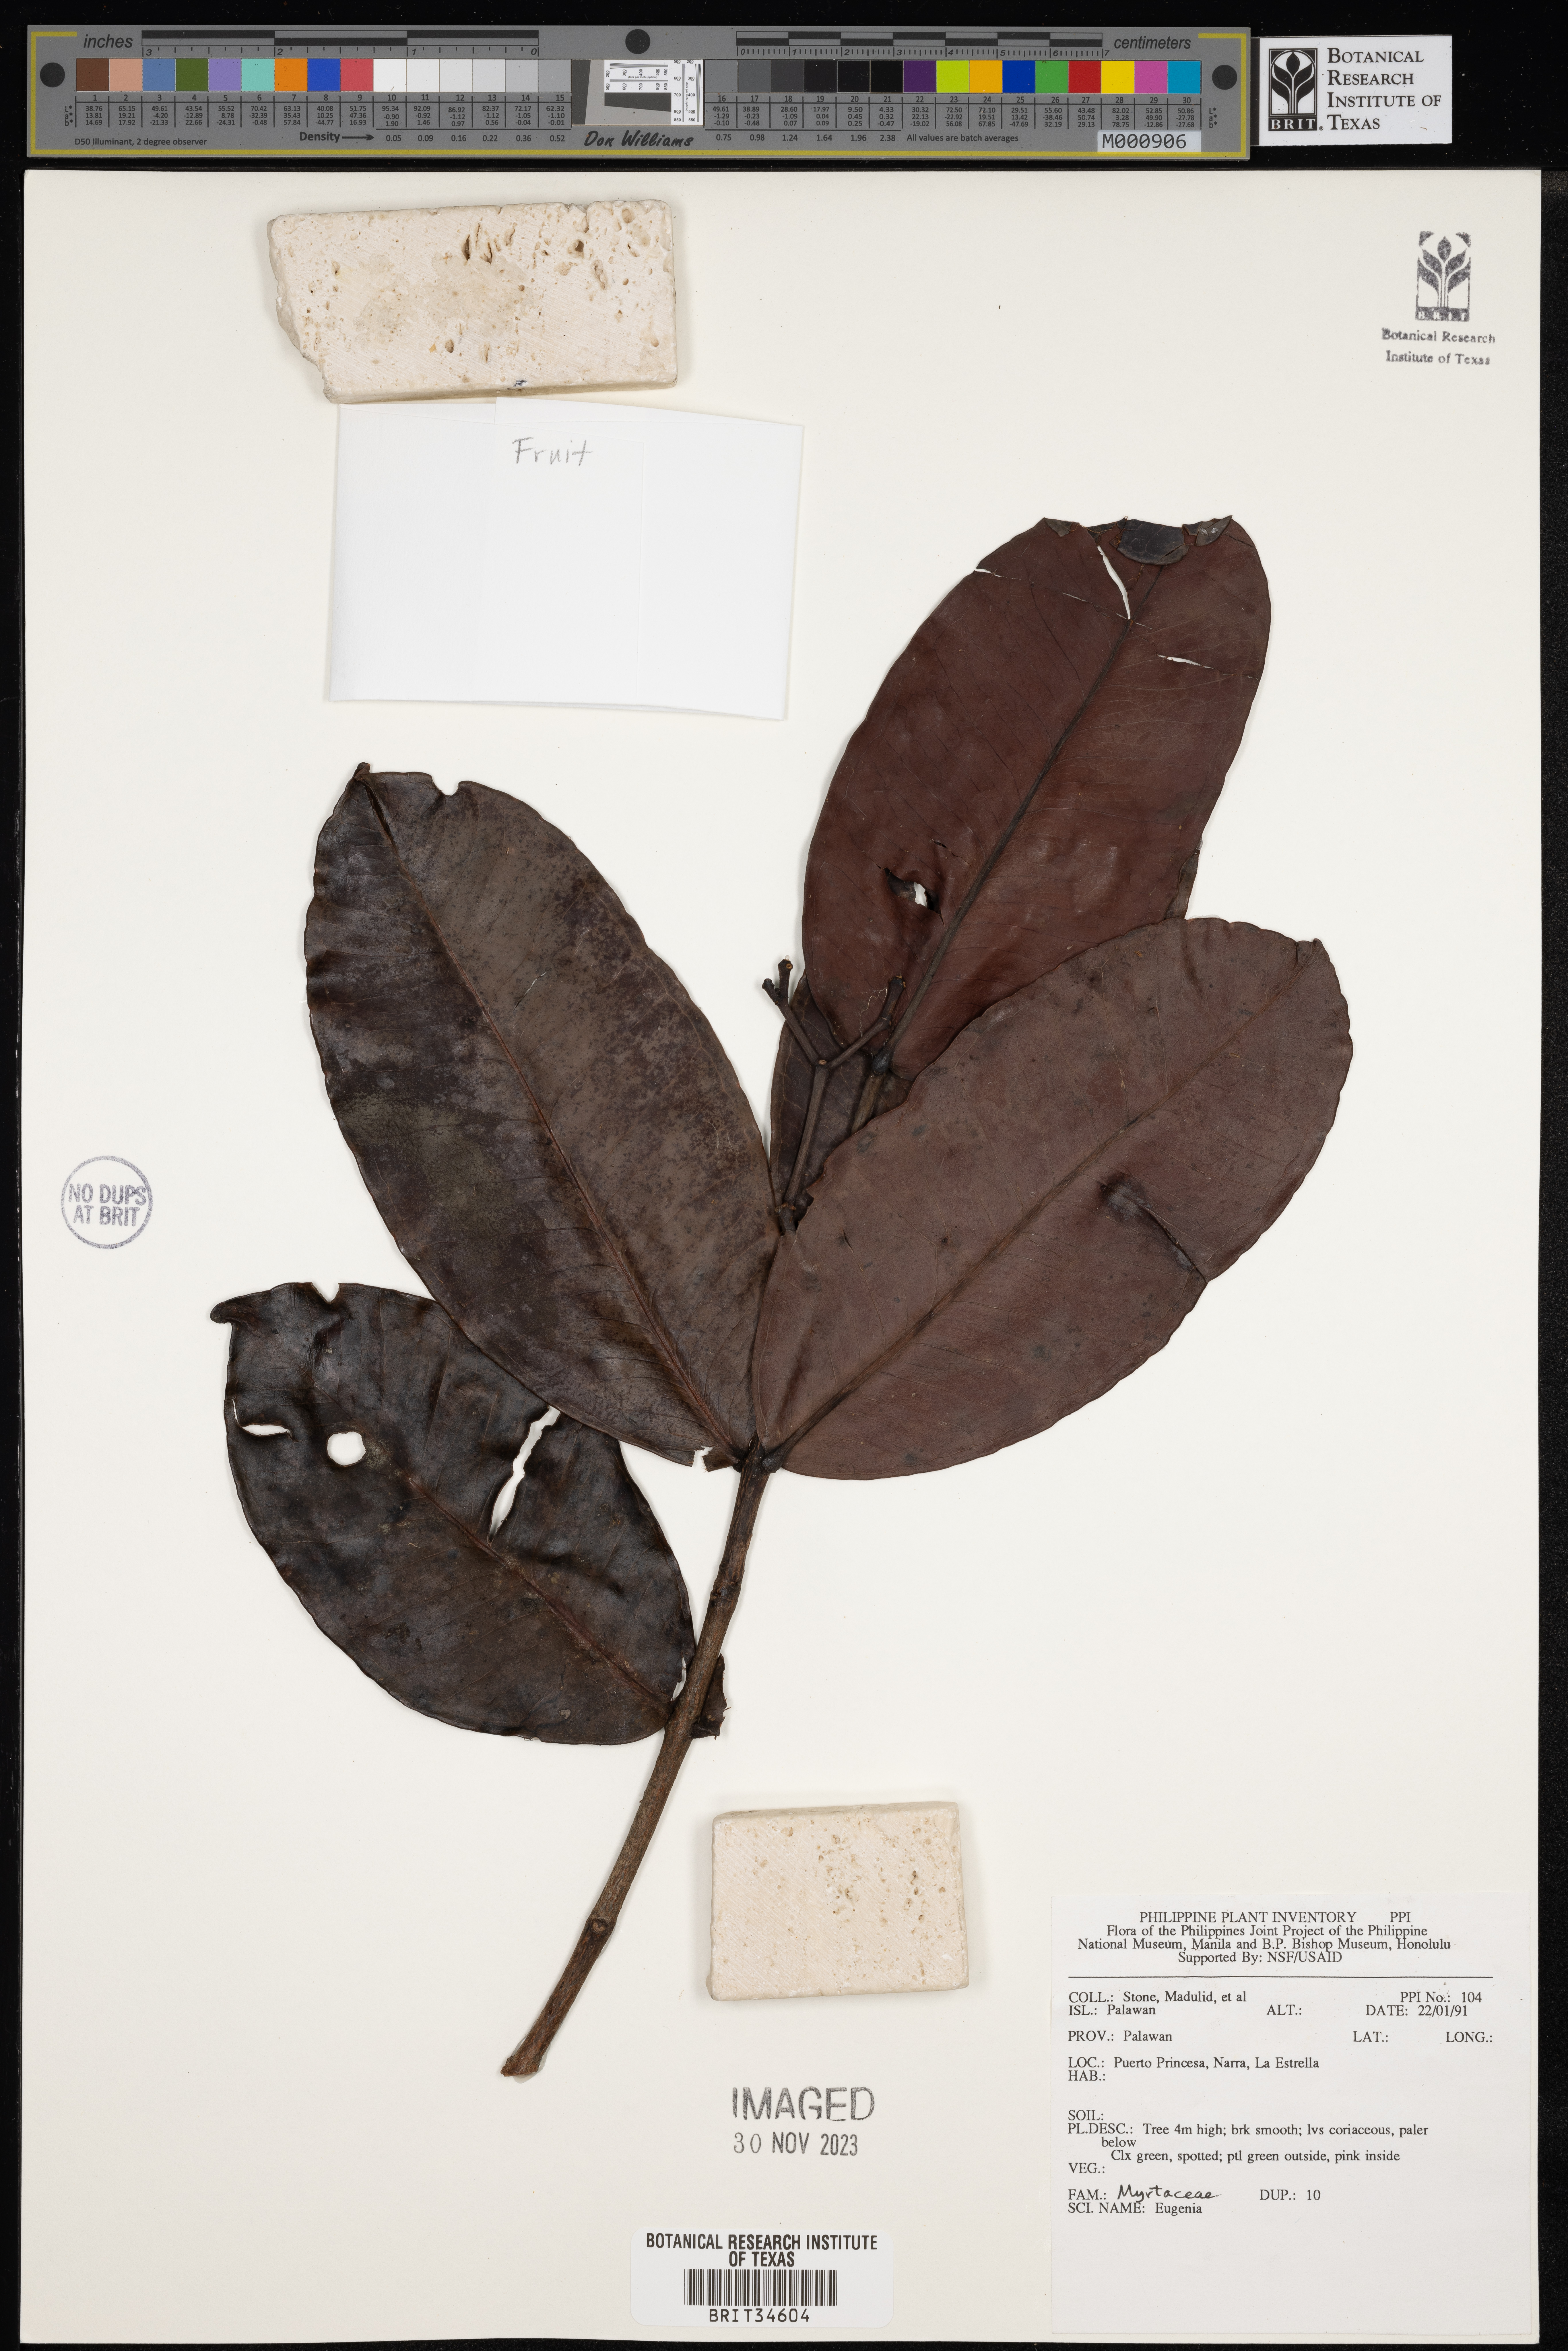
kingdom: Plantae
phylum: Tracheophyta
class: Magnoliopsida
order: Myrtales
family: Myrtaceae
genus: Eugenia
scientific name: Eugenia
